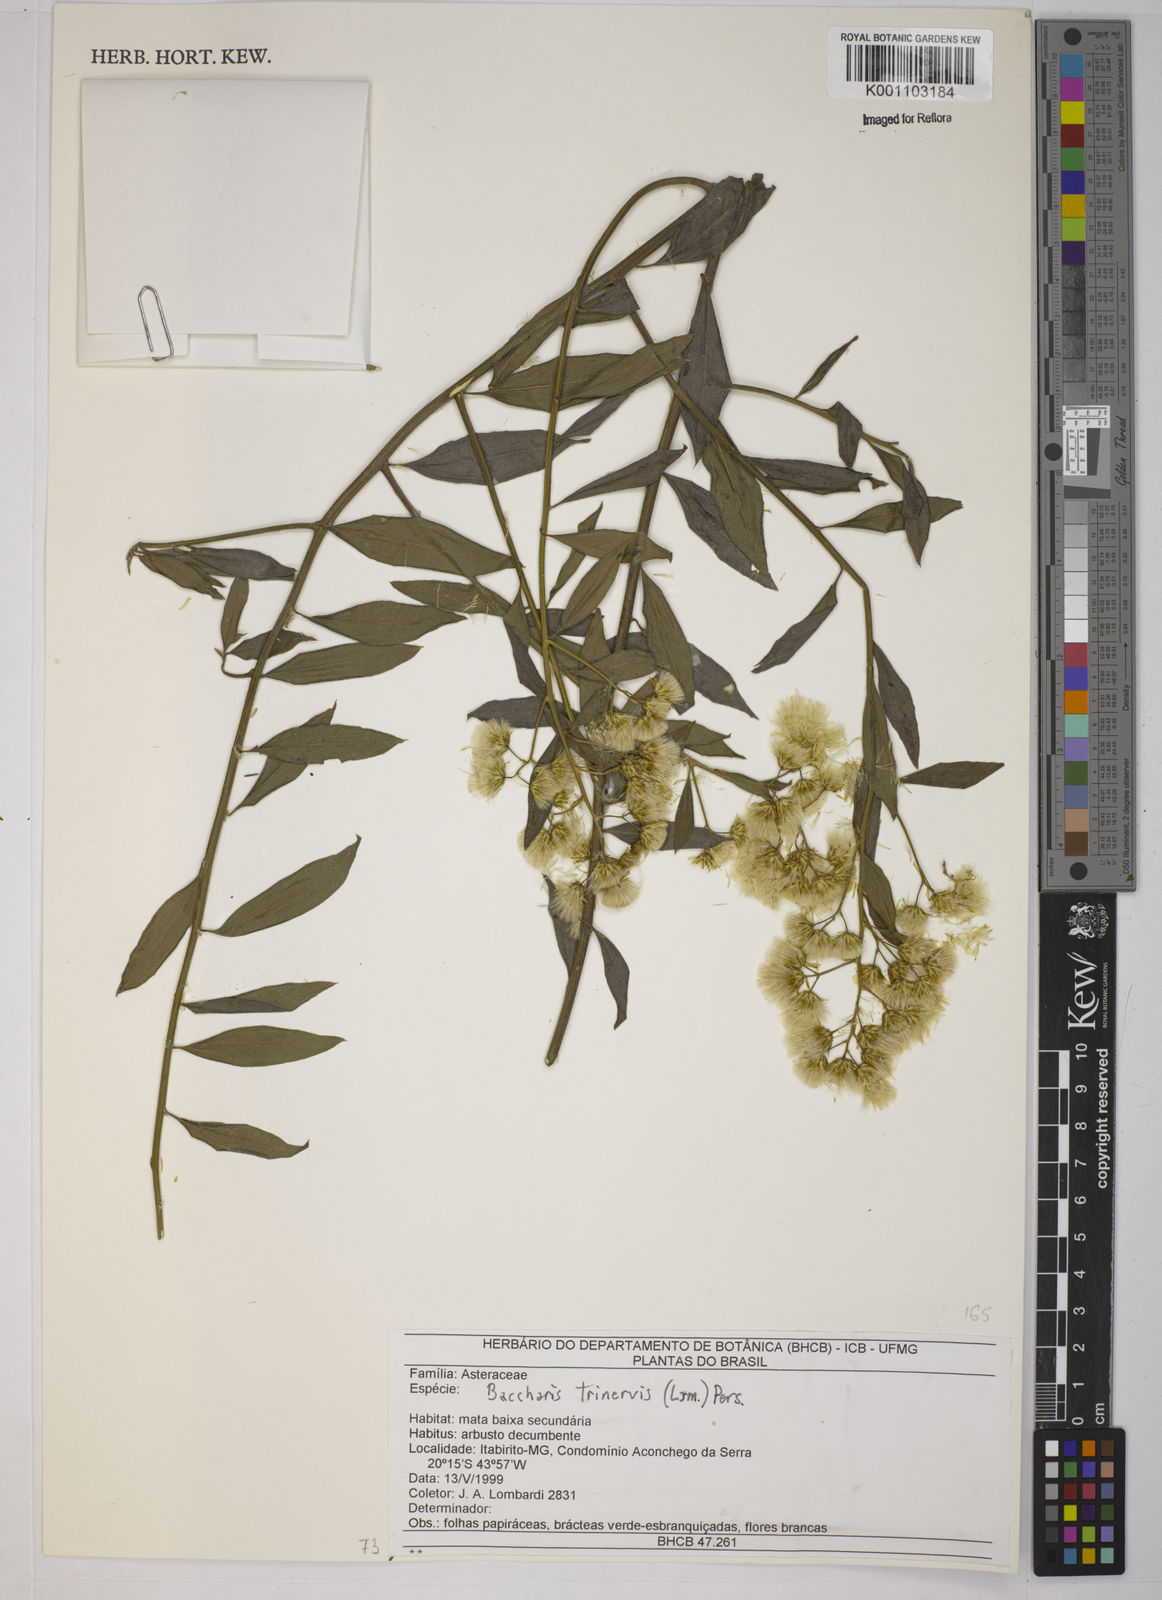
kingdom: Plantae
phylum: Tracheophyta
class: Magnoliopsida
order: Asterales
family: Asteraceae
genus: Baccharis
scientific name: Baccharis trinervis
